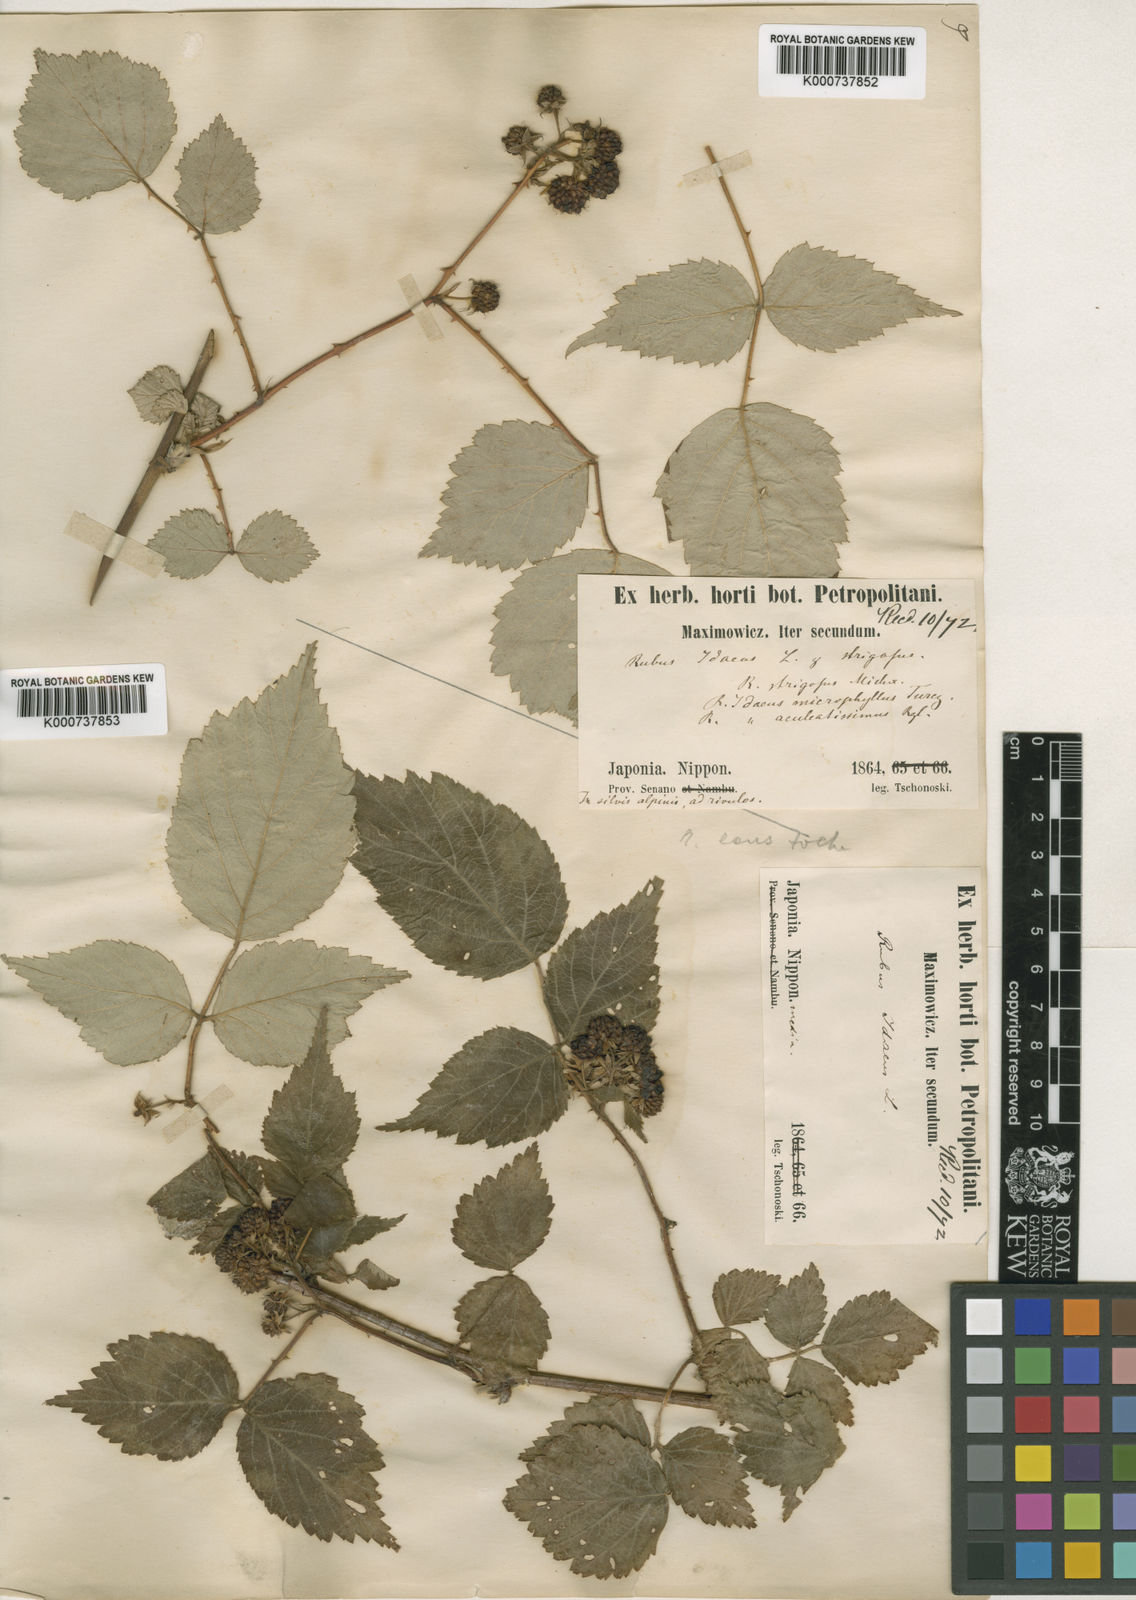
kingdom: Plantae
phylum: Tracheophyta
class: Magnoliopsida
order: Rosales
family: Rosaceae
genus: Rubus
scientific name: Rubus idaeus
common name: Raspberry
